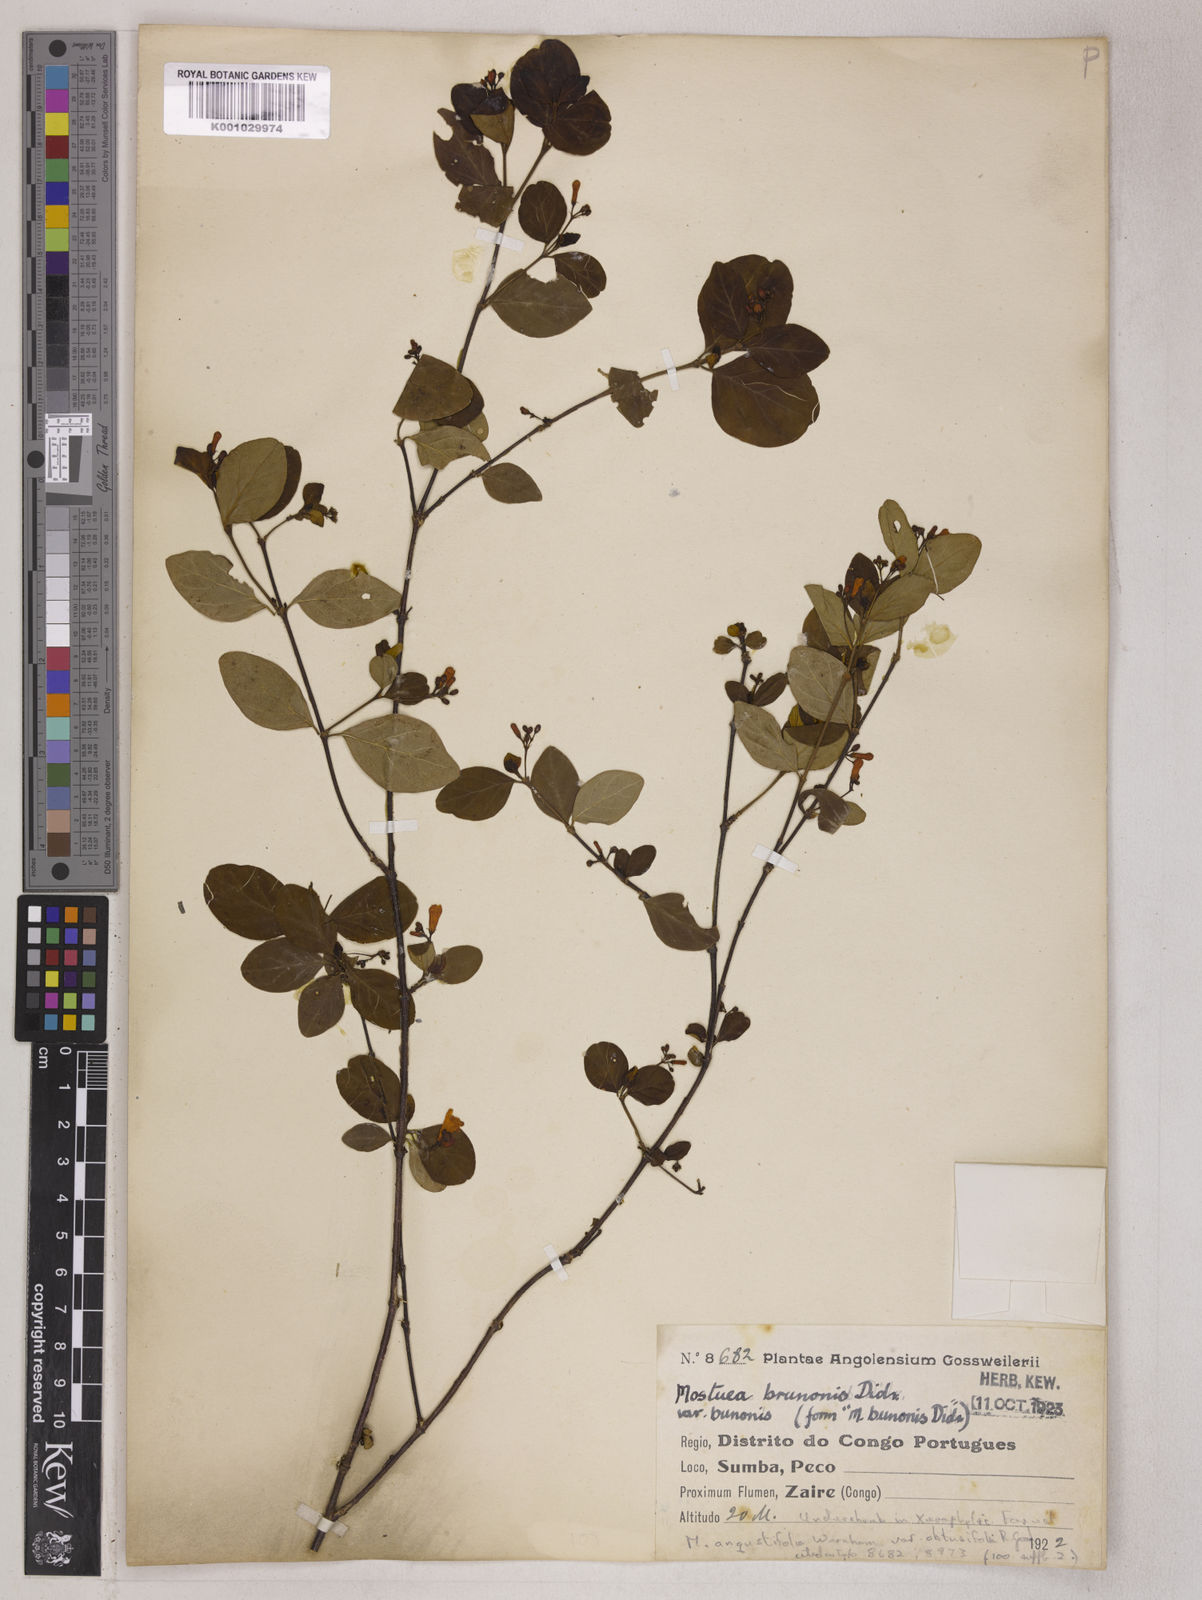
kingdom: Plantae
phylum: Tracheophyta
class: Magnoliopsida
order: Gentianales
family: Gelsemiaceae
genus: Mostuea
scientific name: Mostuea brunonis
